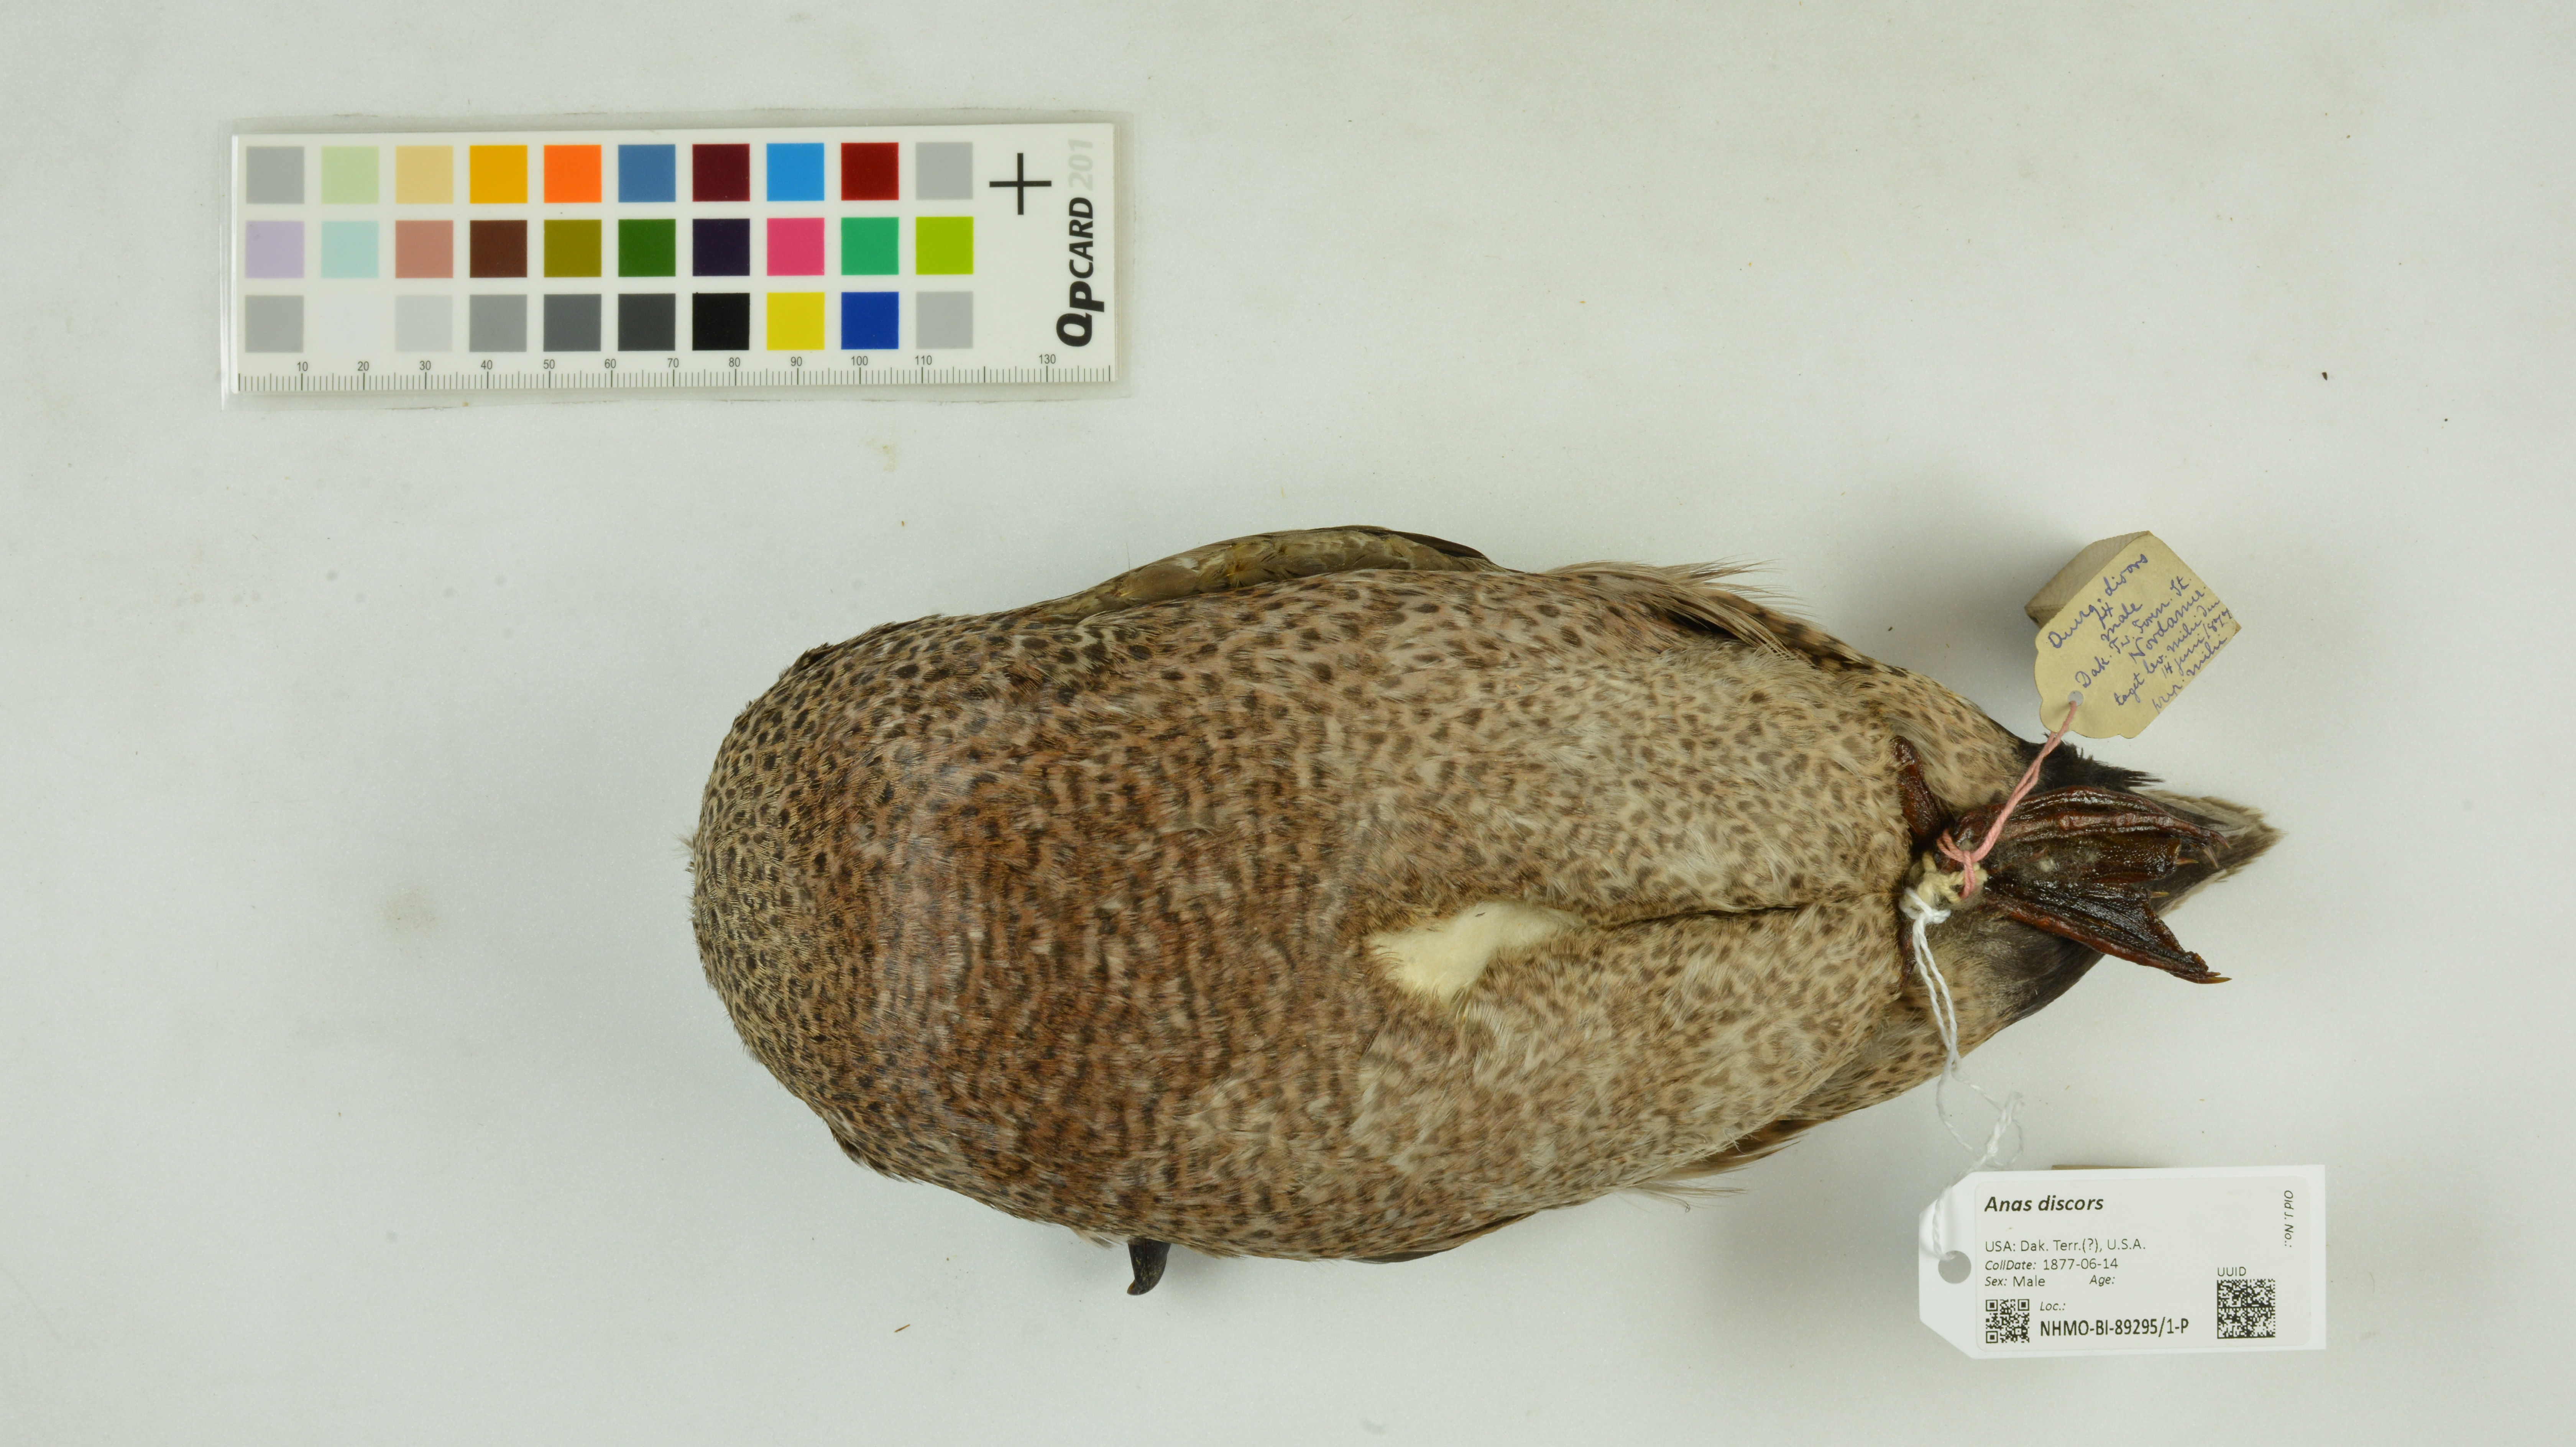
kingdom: Animalia
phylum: Chordata
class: Aves
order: Anseriformes
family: Anatidae
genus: Spatula
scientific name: Spatula discors
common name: Blue-winged teal
